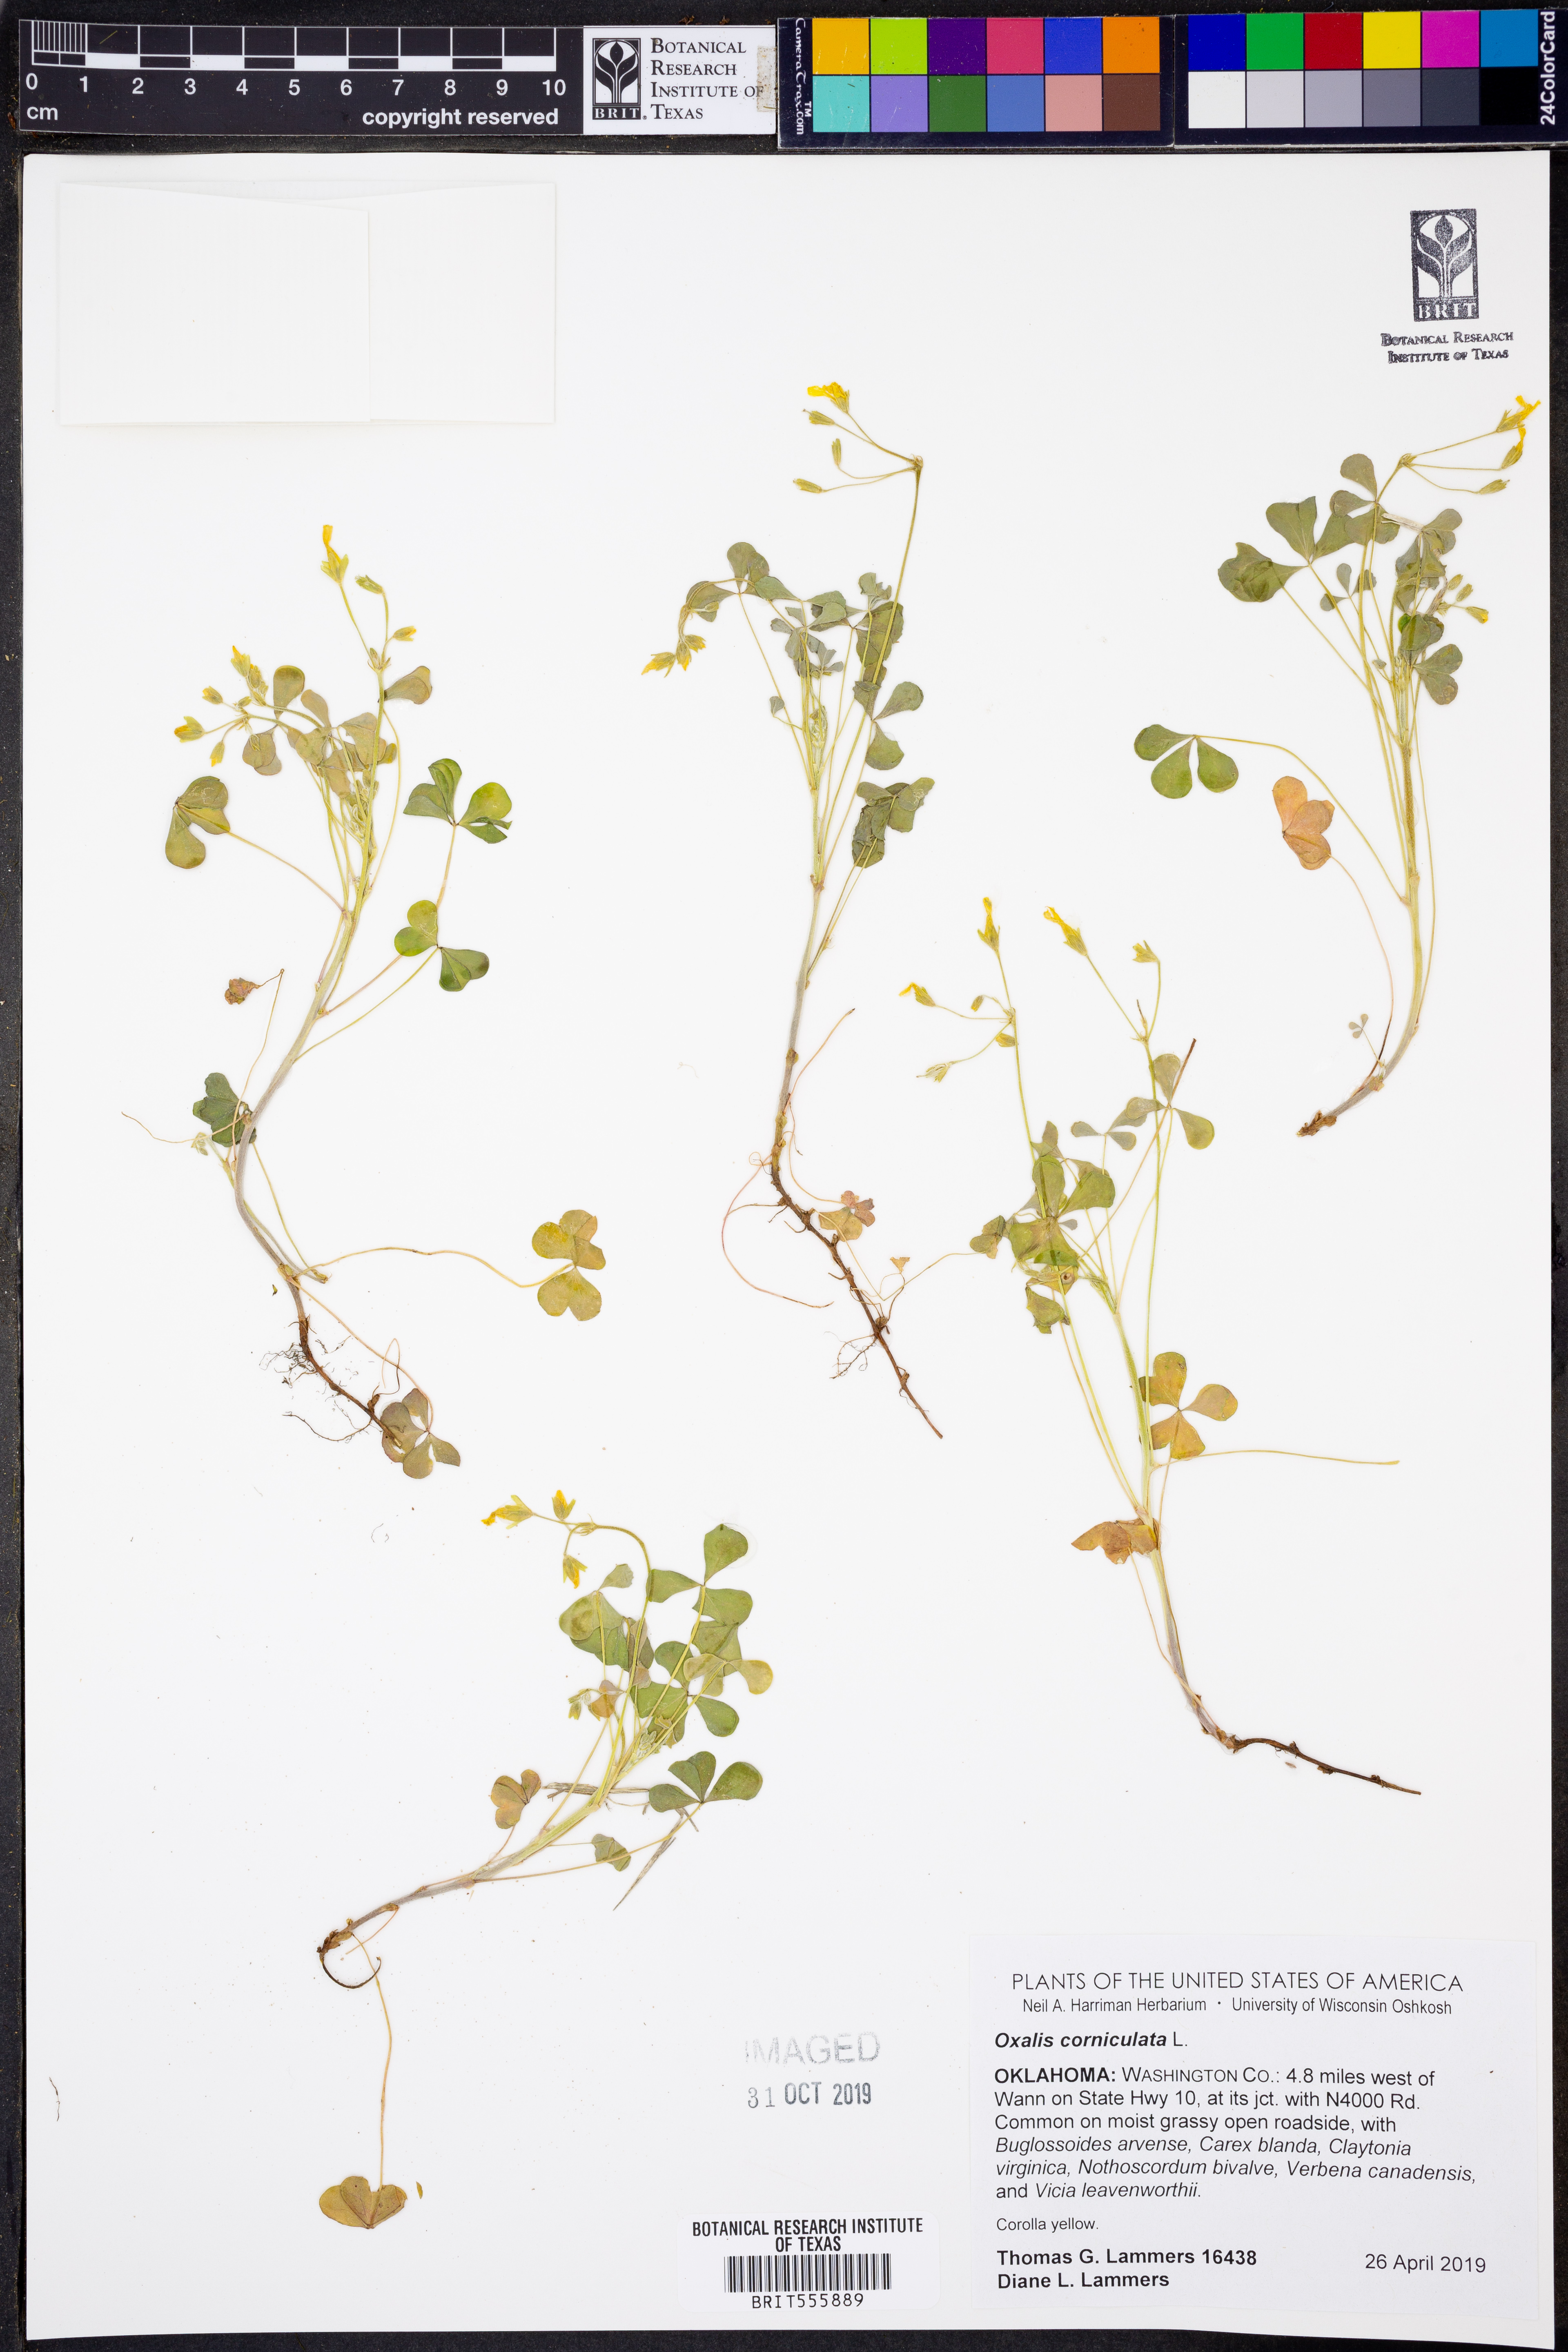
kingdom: Plantae
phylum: Tracheophyta
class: Magnoliopsida
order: Oxalidales
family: Oxalidaceae
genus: Oxalis
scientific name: Oxalis corniculata
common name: Procumbent yellow-sorrel
